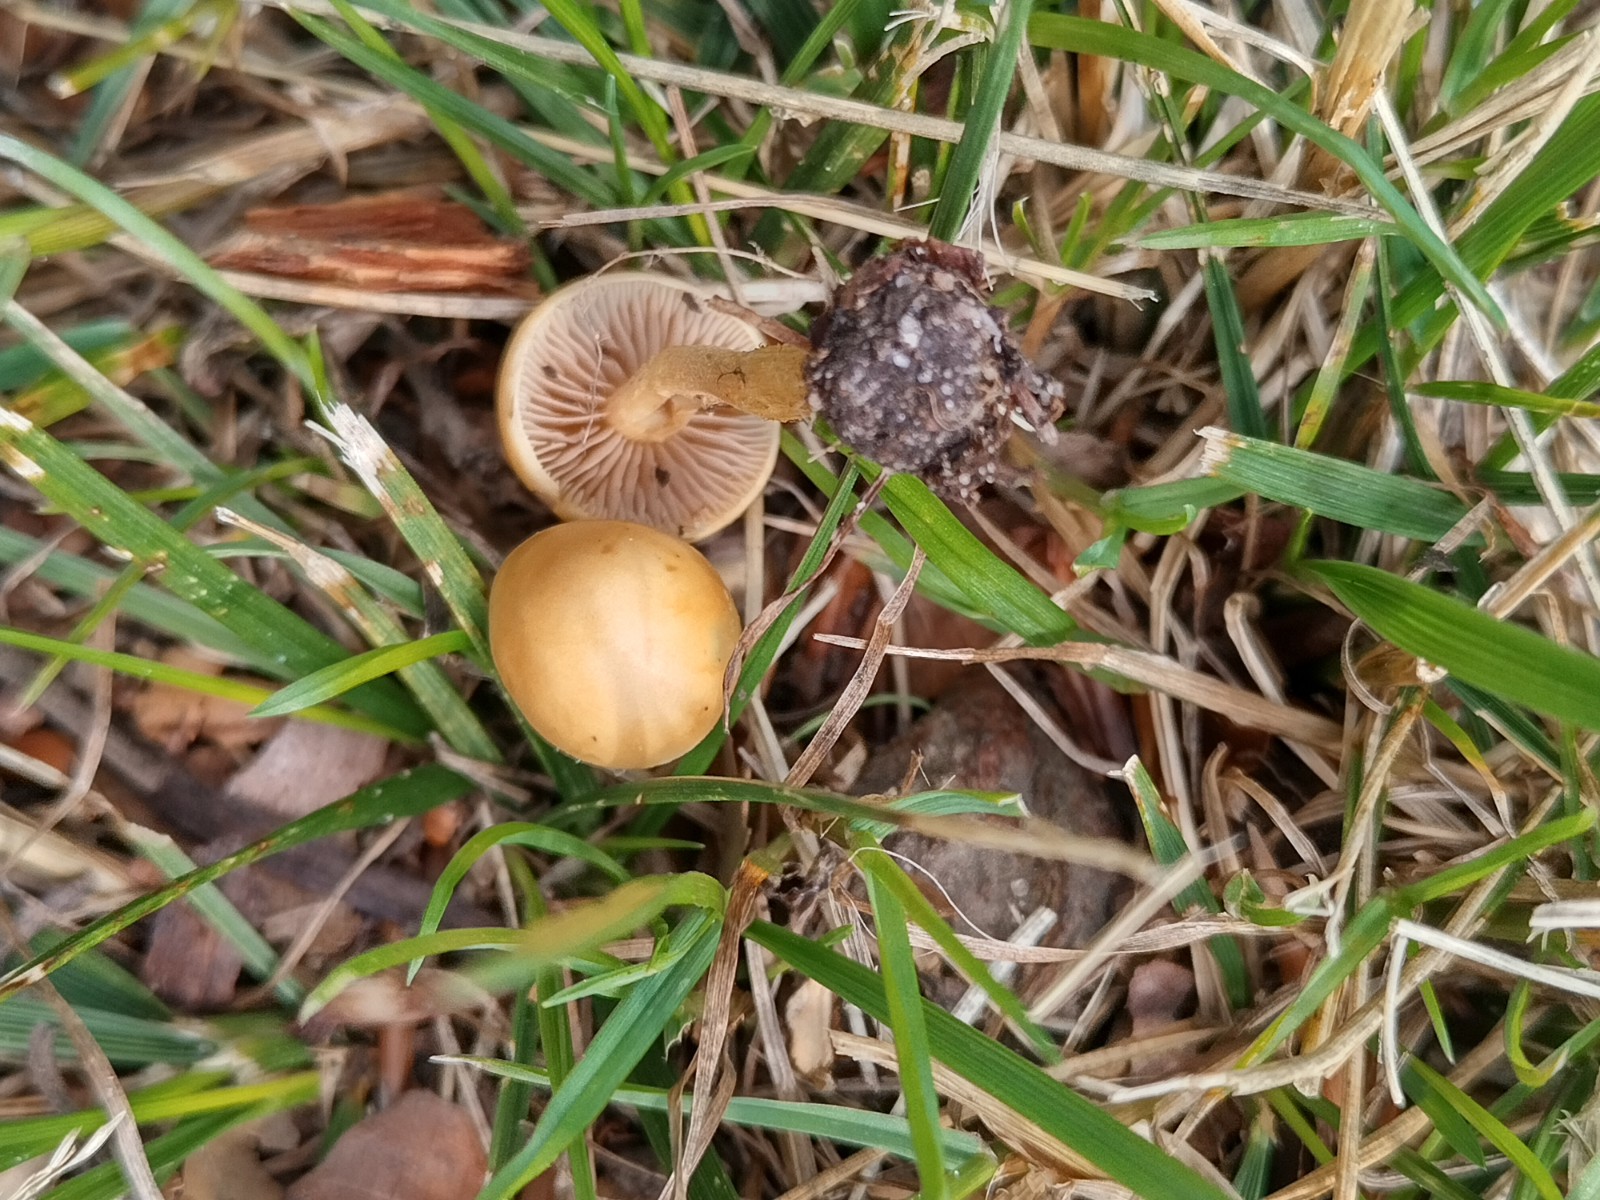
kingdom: Fungi
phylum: Basidiomycota
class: Agaricomycetes
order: Agaricales
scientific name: Agaricales
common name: champignonordenen
